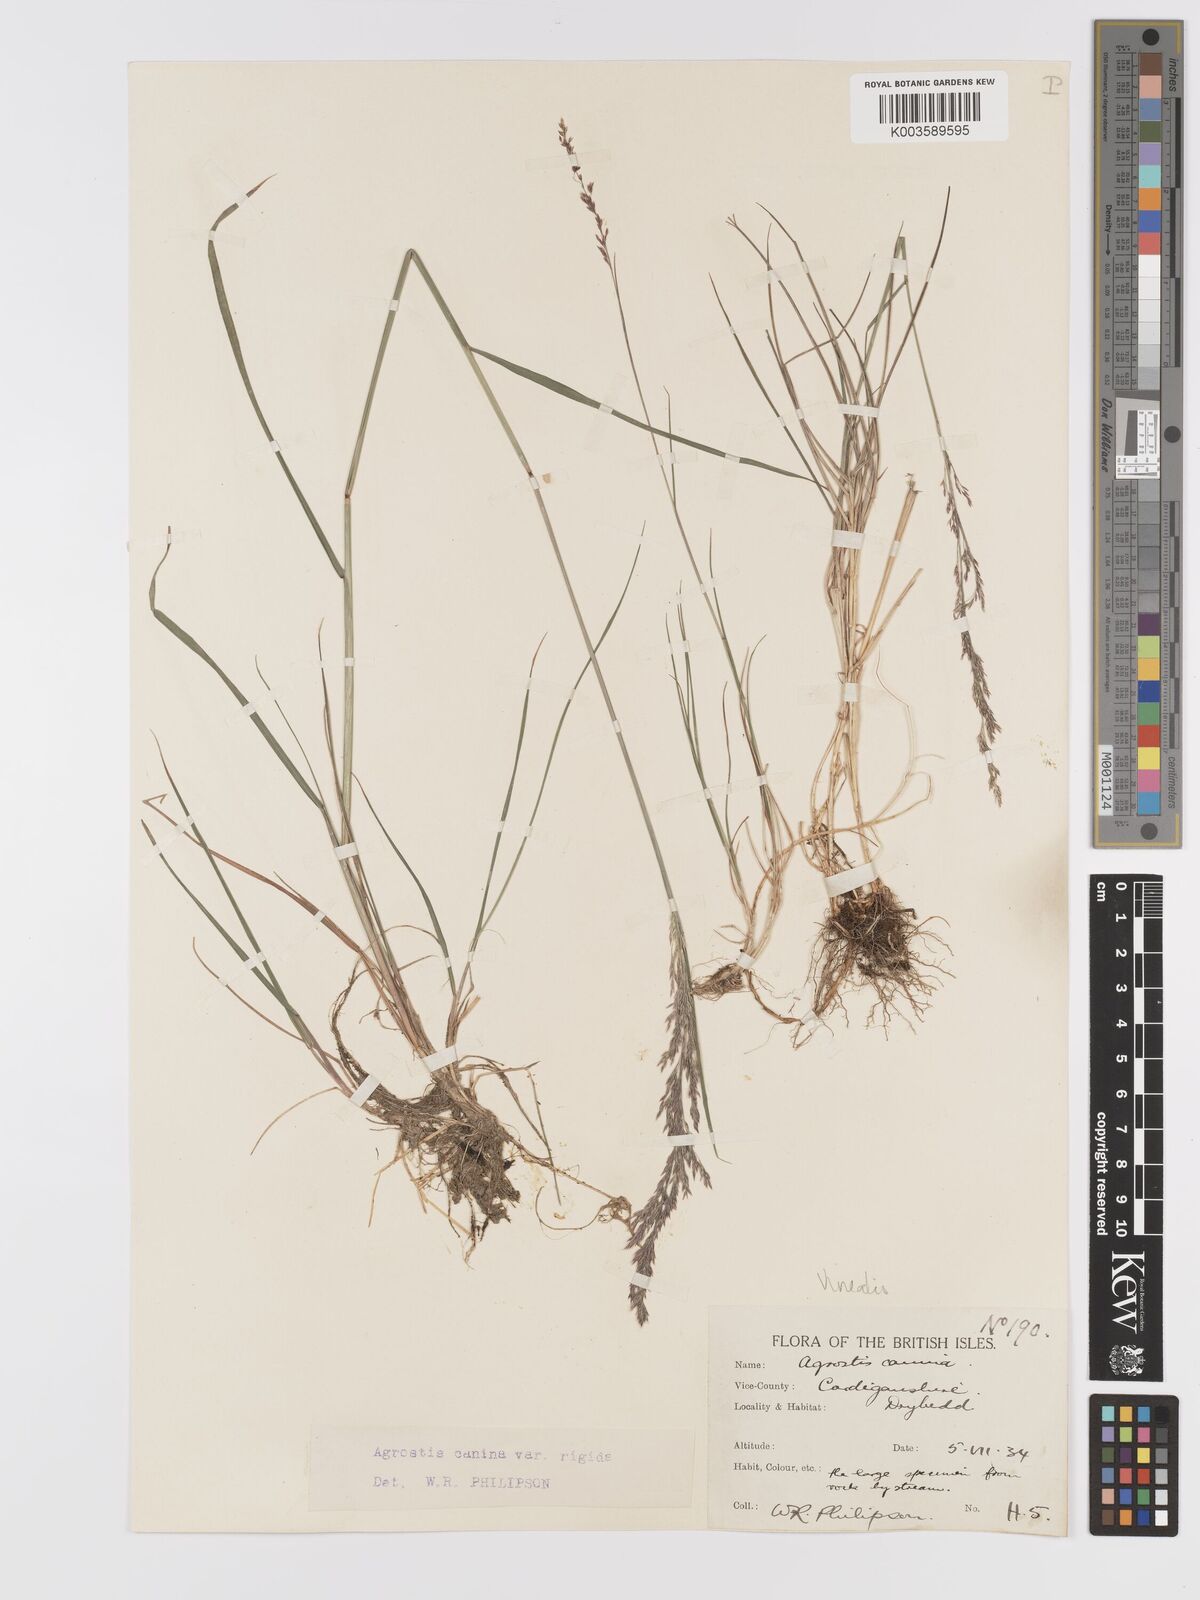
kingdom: Plantae
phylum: Tracheophyta
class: Liliopsida
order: Poales
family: Poaceae
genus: Agrostis
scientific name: Agrostis
